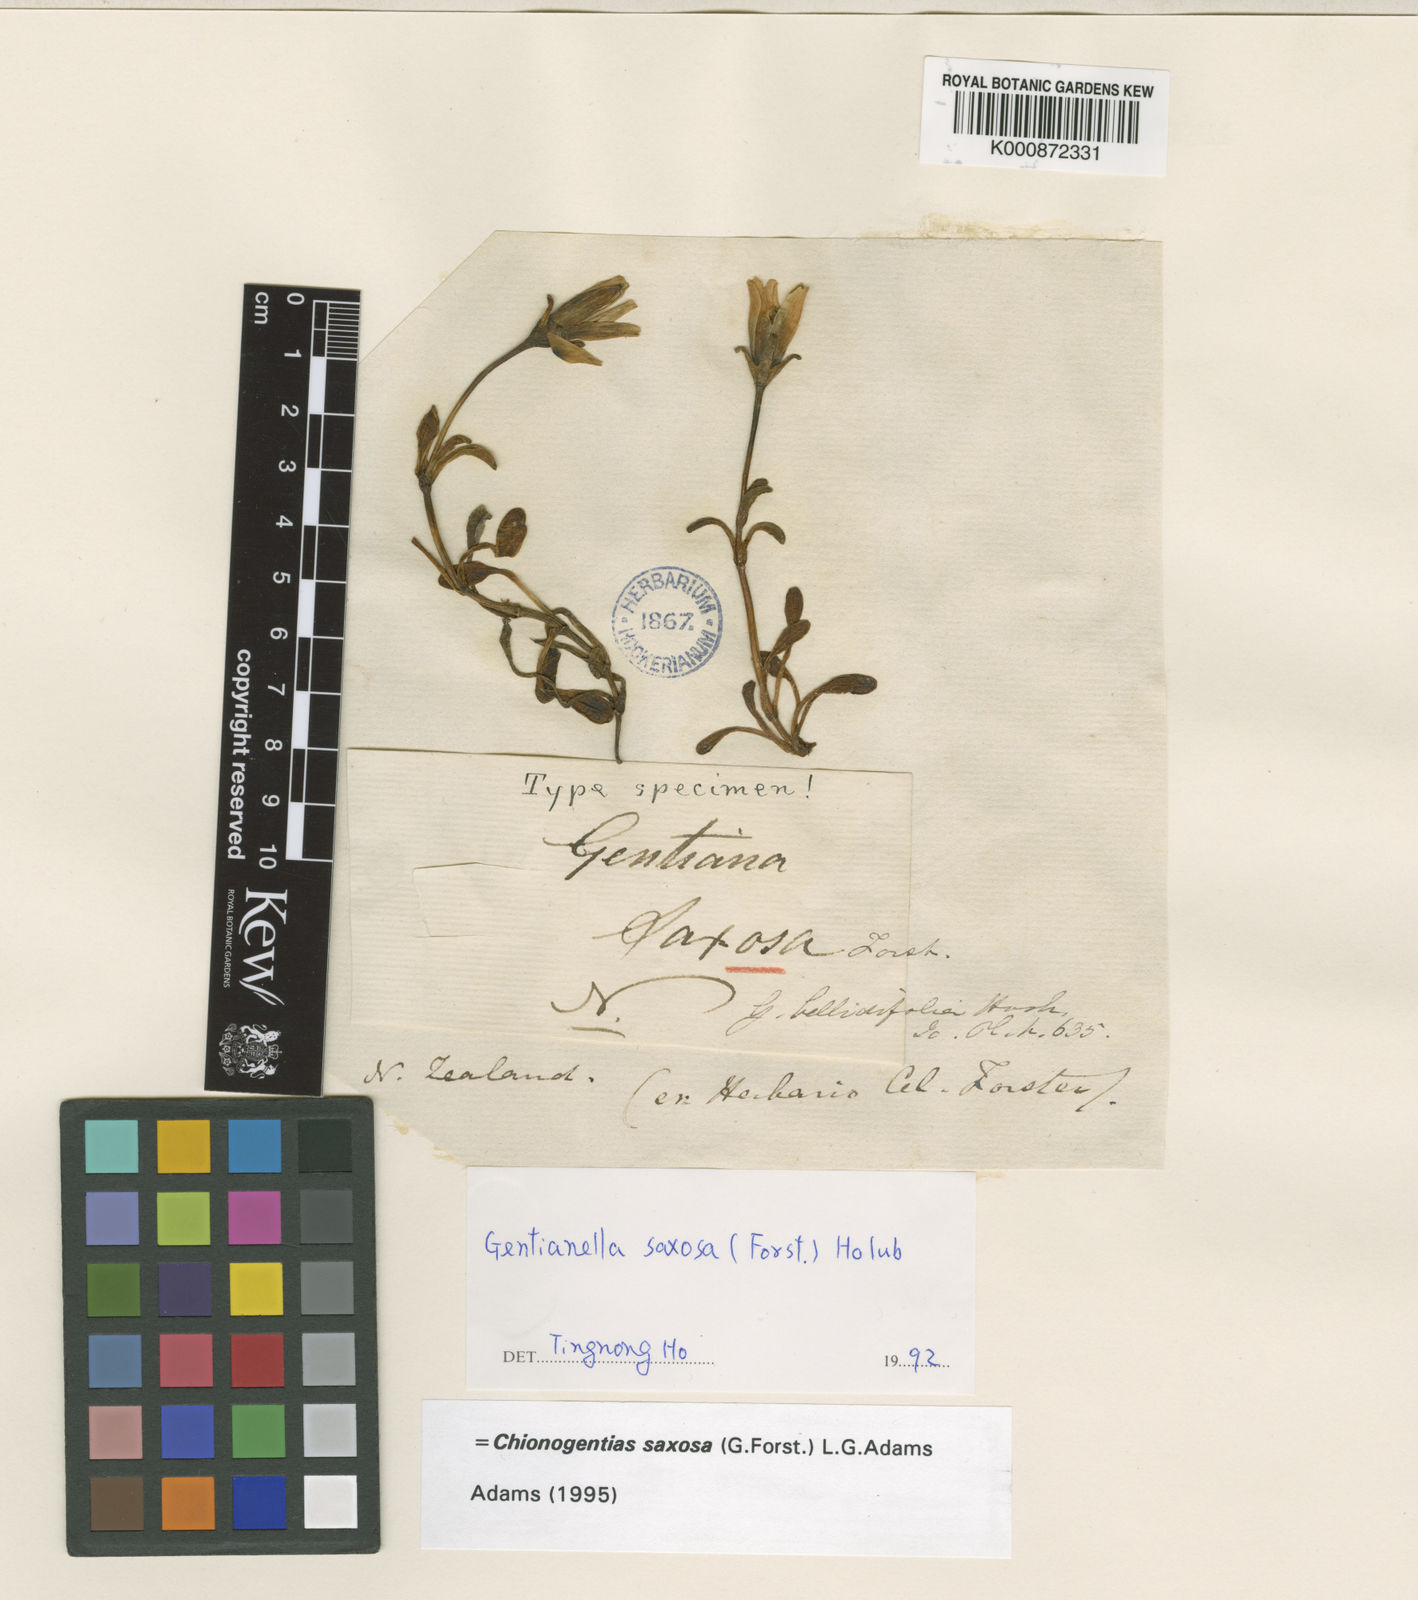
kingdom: Plantae
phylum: Tracheophyta
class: Magnoliopsida
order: Gentianales
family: Gentianaceae
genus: Gentianella
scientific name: Gentianella saxosa
